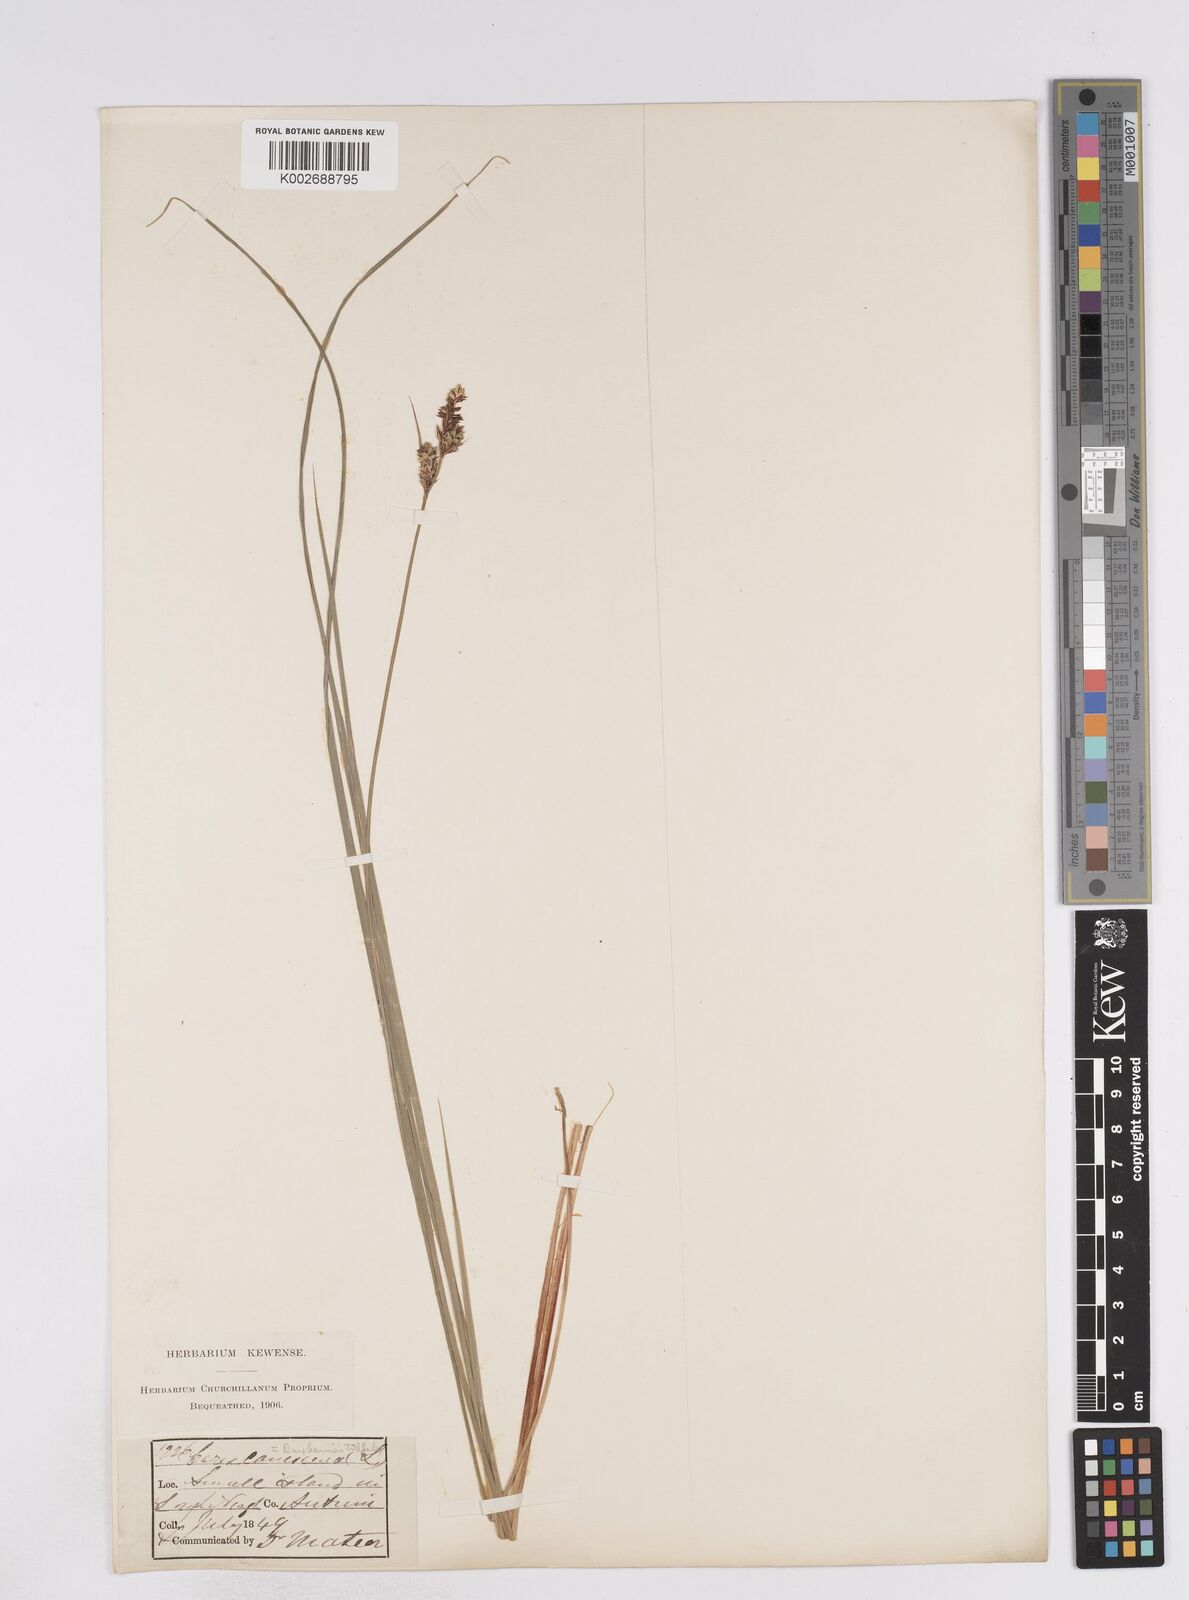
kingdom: Plantae
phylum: Tracheophyta
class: Liliopsida
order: Poales
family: Cyperaceae
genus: Carex
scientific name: Carex buxbaumii
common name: Club sedge
